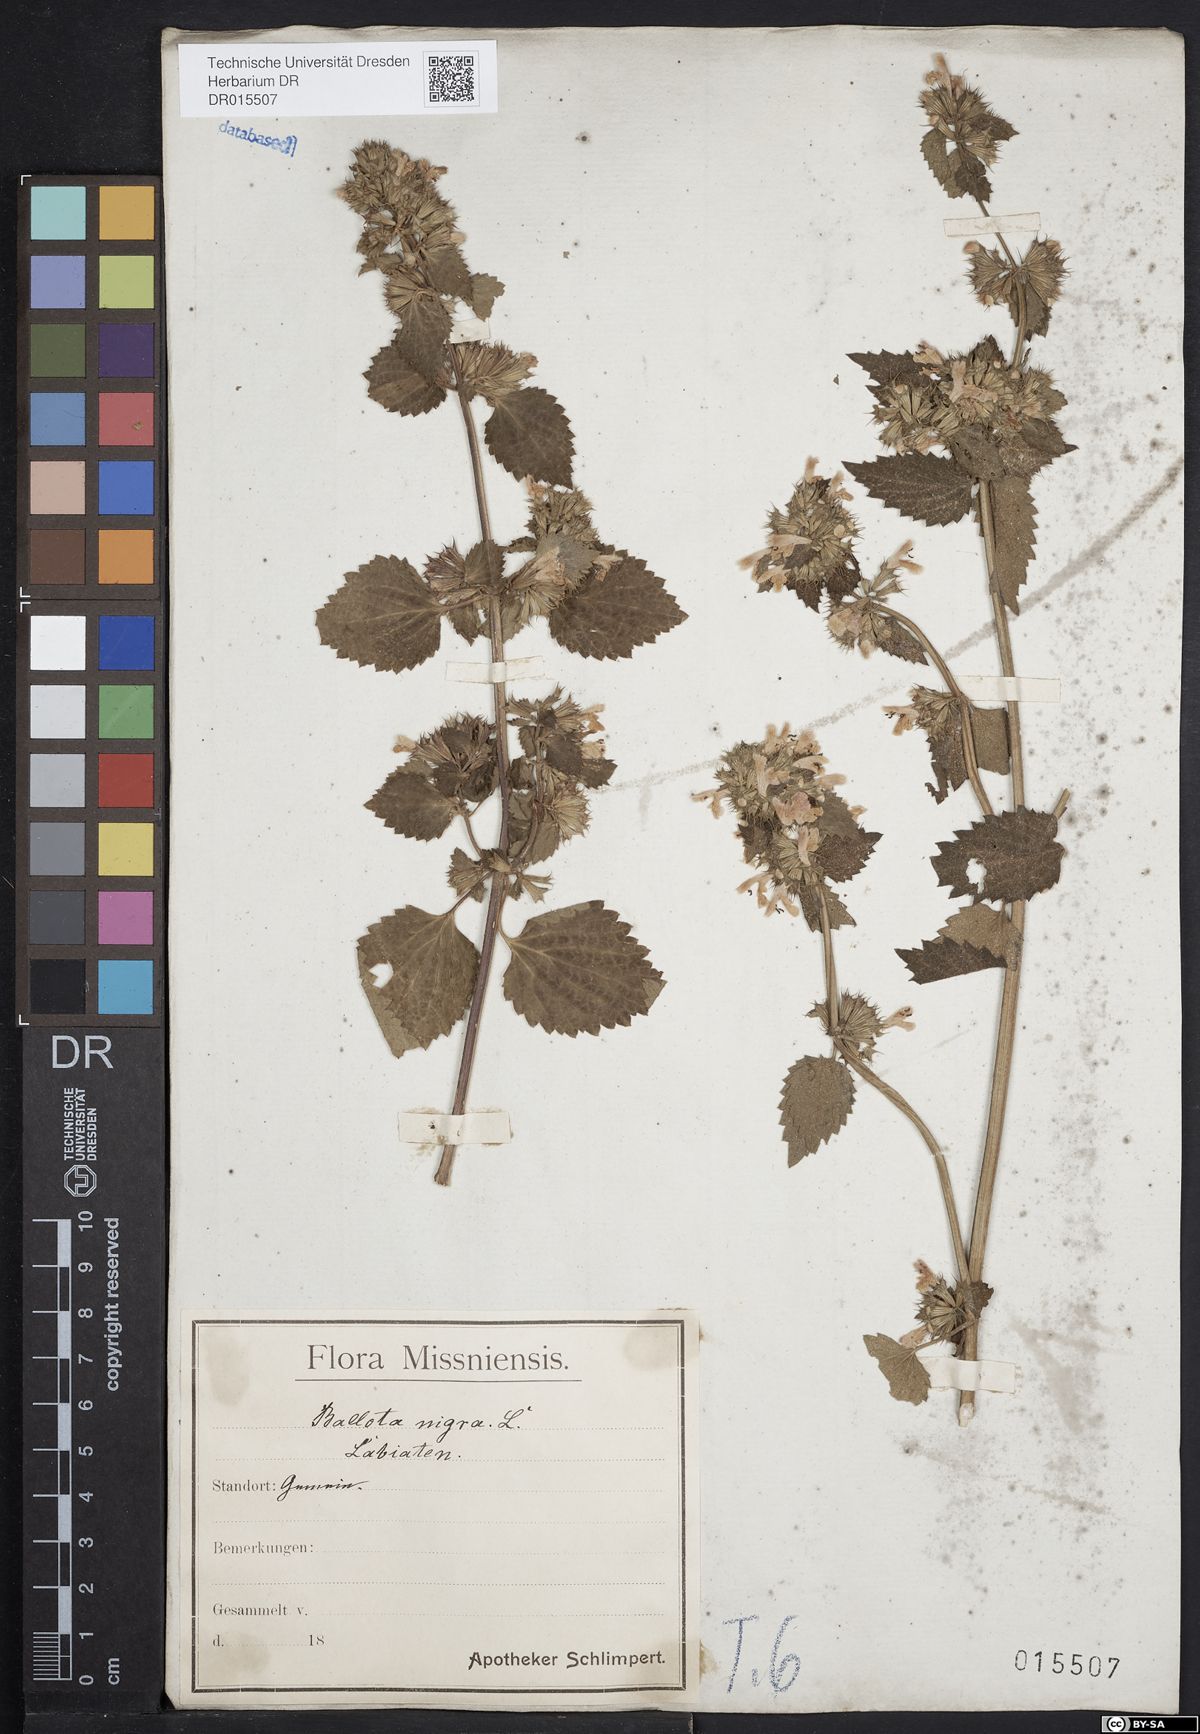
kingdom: Plantae
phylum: Tracheophyta
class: Magnoliopsida
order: Lamiales
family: Lamiaceae
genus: Ballota
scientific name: Ballota nigra
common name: Black horehound
